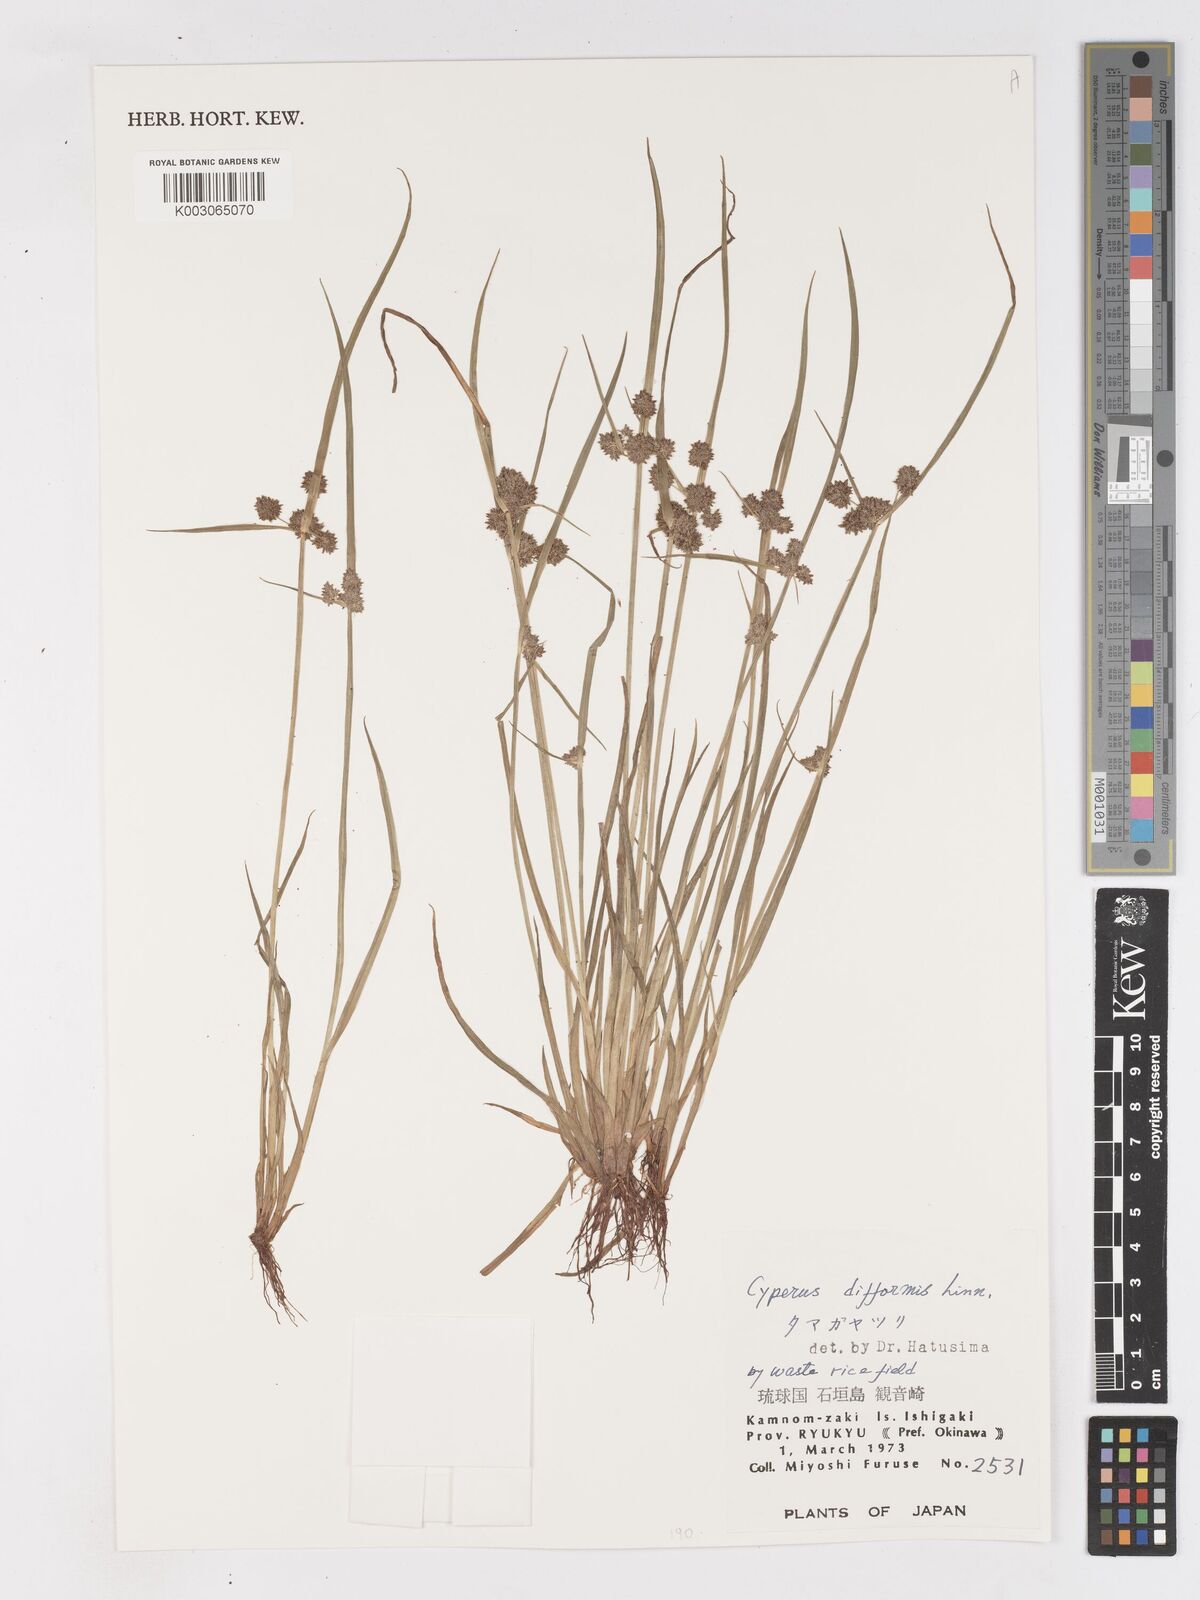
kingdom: Plantae
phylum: Tracheophyta
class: Liliopsida
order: Poales
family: Cyperaceae
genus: Cyperus
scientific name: Cyperus difformis
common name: Variable flatsedge
